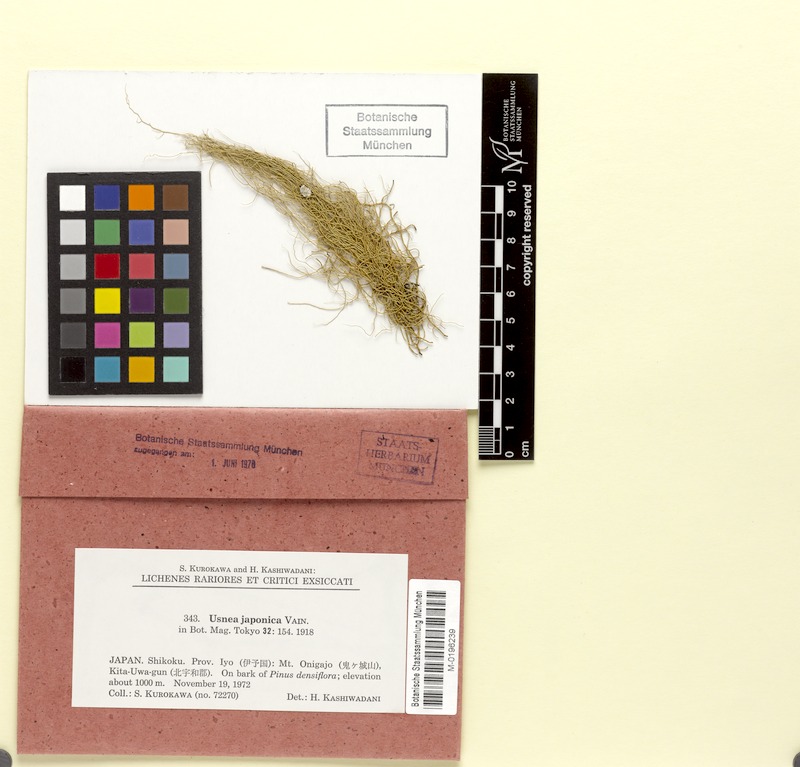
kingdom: Fungi
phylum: Ascomycota
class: Lecanoromycetes
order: Lecanorales
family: Parmeliaceae
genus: Usnea
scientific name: Usnea japonica
